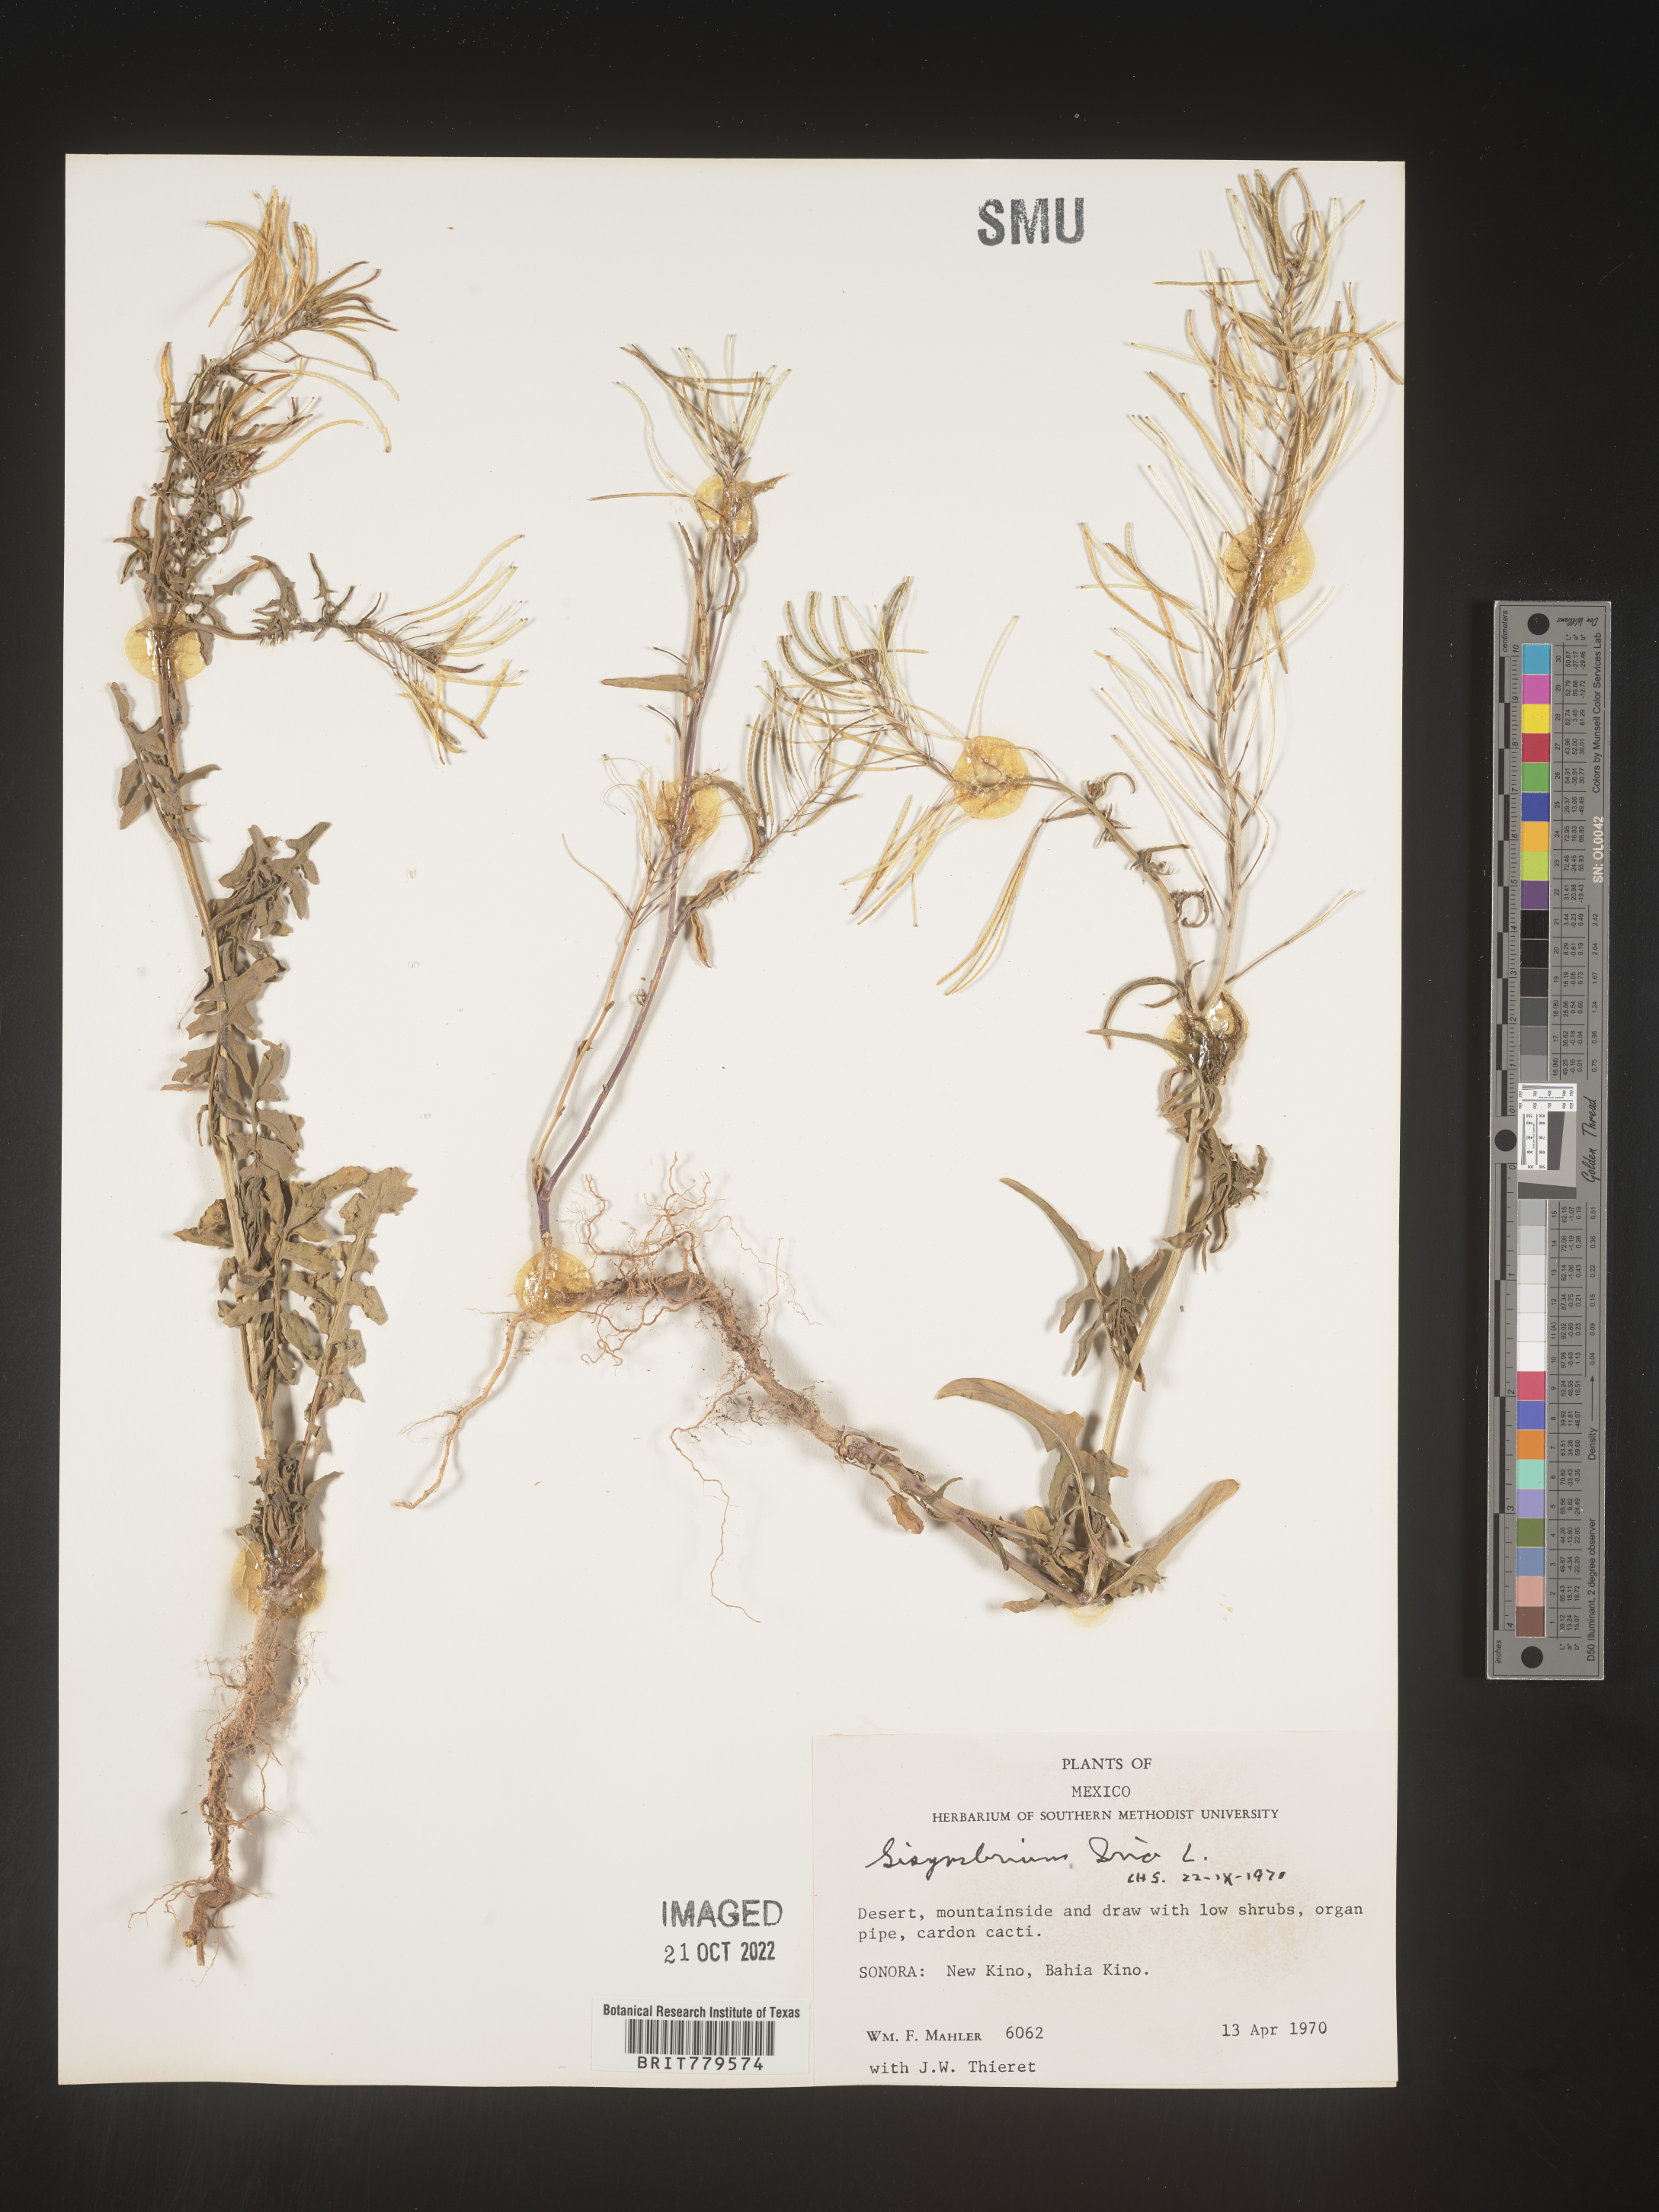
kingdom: Plantae
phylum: Tracheophyta
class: Magnoliopsida
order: Brassicales
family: Brassicaceae
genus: Sisymbrium
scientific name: Sisymbrium
